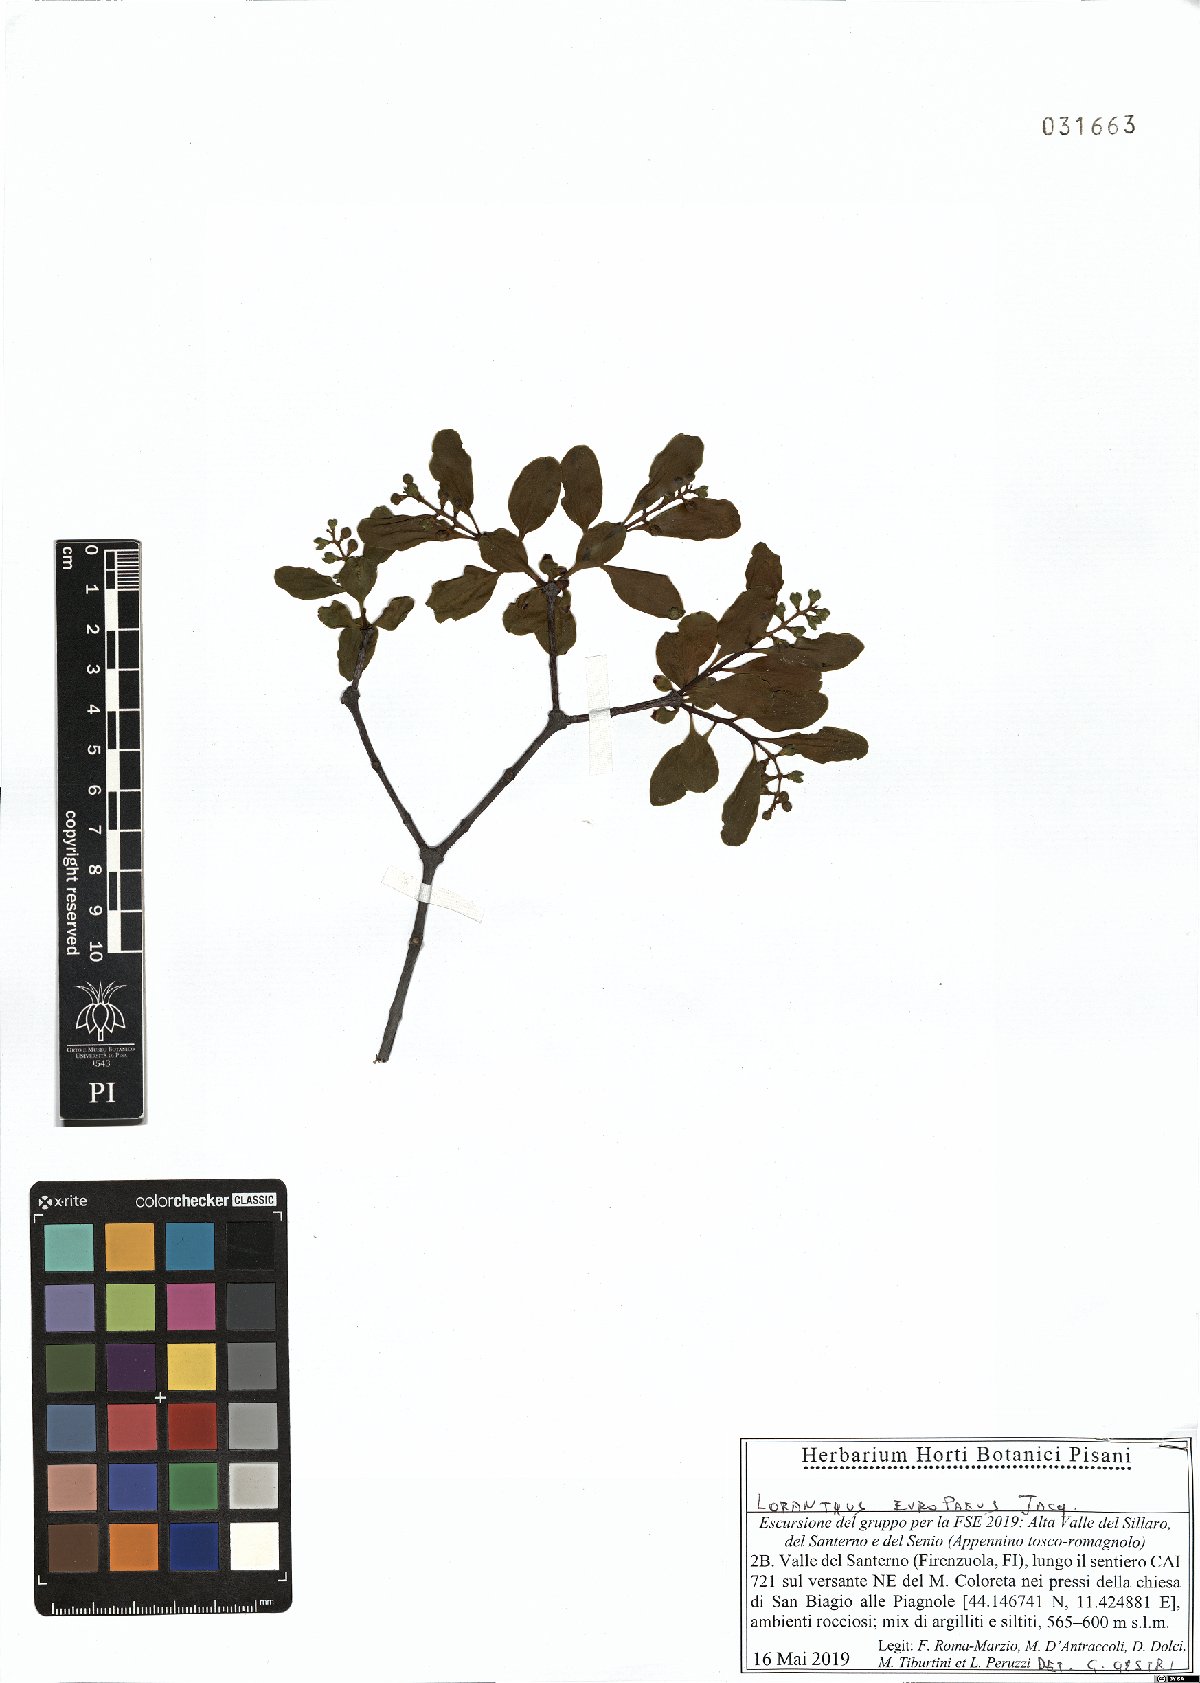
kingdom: Plantae
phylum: Tracheophyta
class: Magnoliopsida
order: Santalales
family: Loranthaceae
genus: Loranthus
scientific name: Loranthus europaeus
